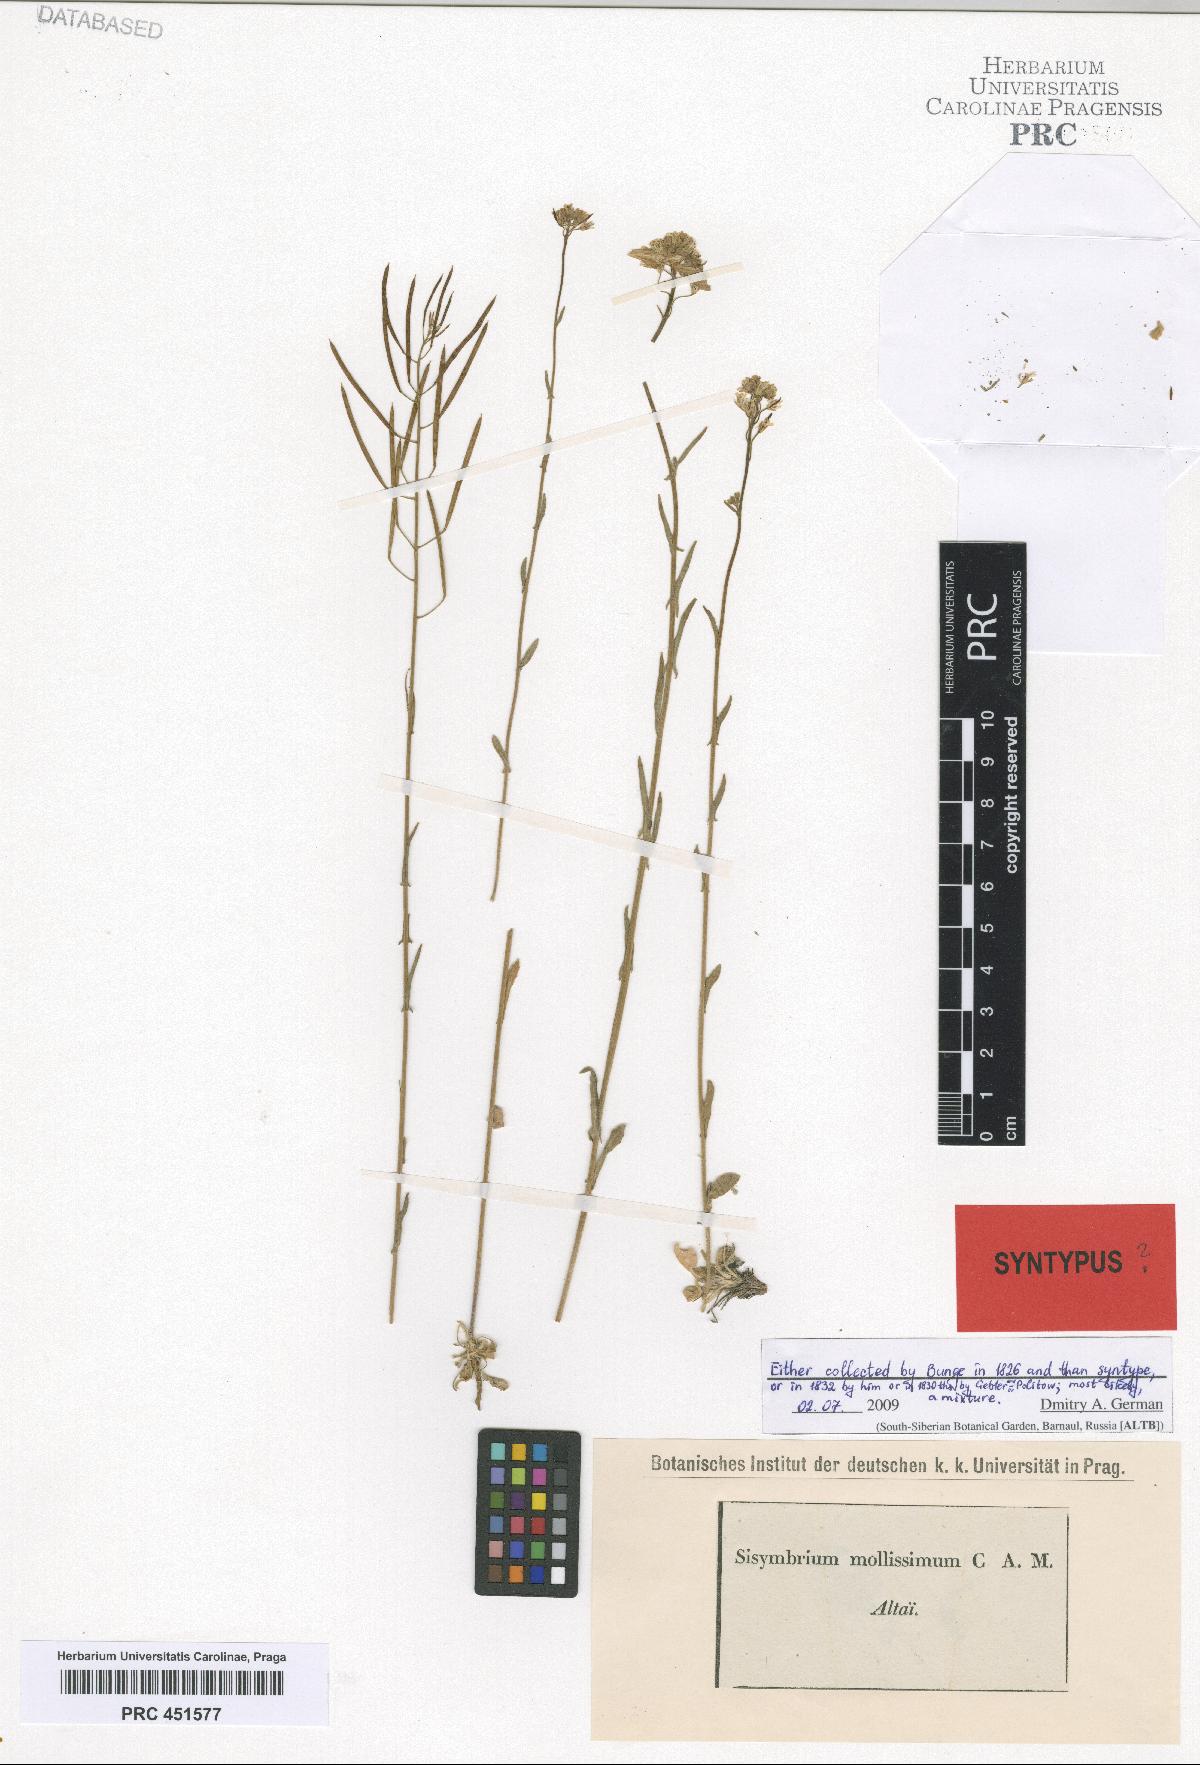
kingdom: Plantae
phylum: Tracheophyta
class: Magnoliopsida
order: Brassicales
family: Brassicaceae
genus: Crucihimalaya
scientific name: Crucihimalaya mollissima
